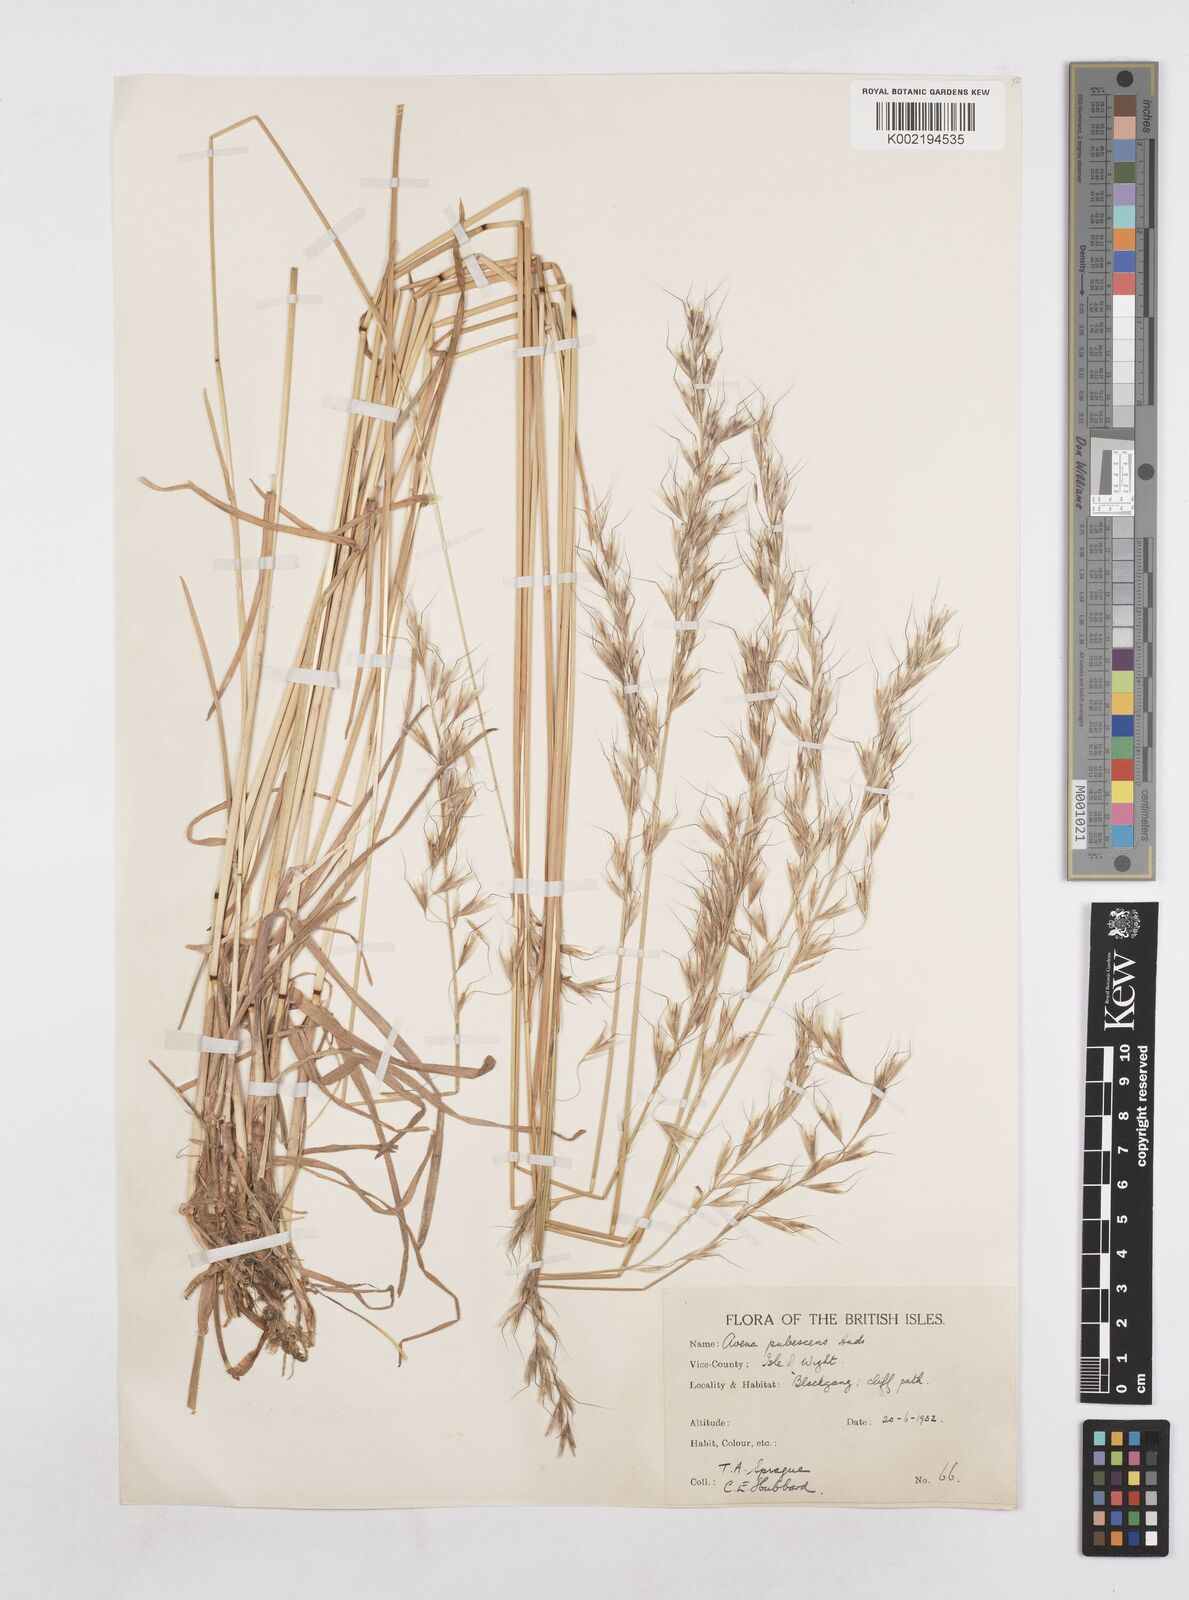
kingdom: Plantae
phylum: Tracheophyta
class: Liliopsida
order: Poales
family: Poaceae
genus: Avenula
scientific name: Avenula pubescens
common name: Downy alpine oatgrass
